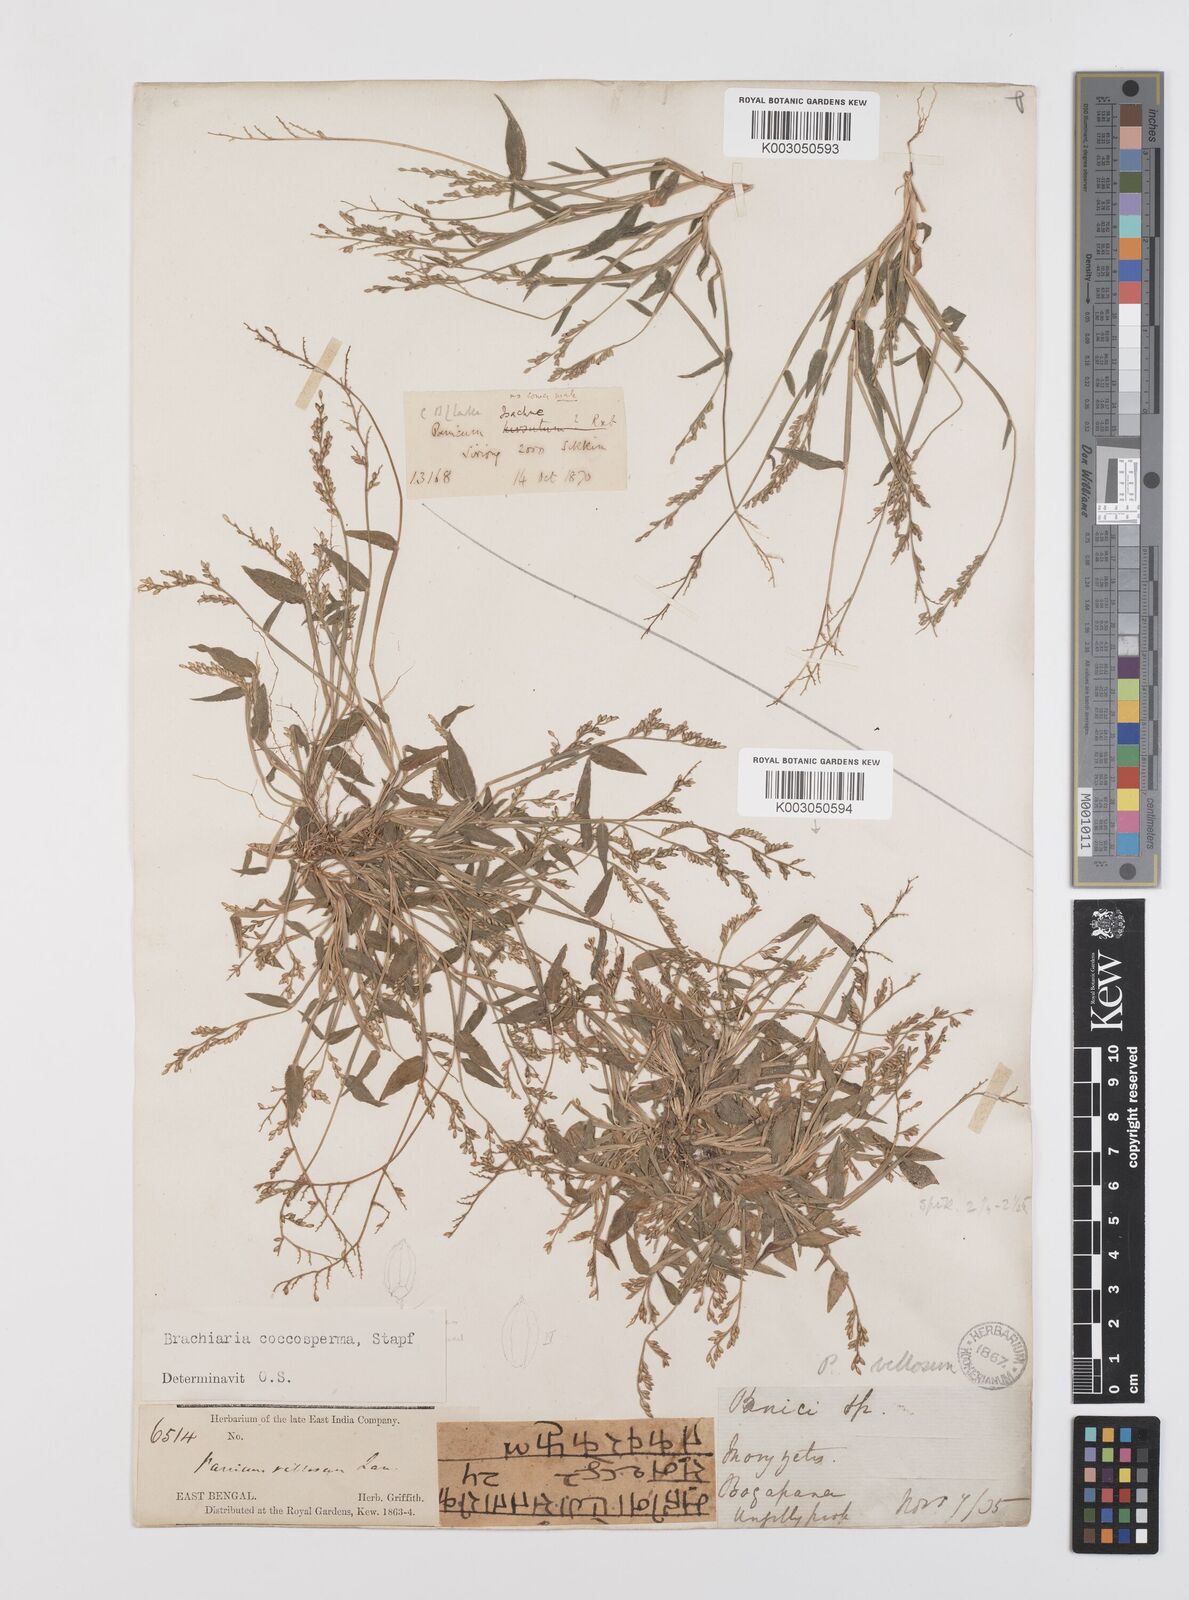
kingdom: Plantae
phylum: Tracheophyta
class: Liliopsida
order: Poales
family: Poaceae
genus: Urochloa
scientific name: Urochloa villosa
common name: Hairy signalgrass
